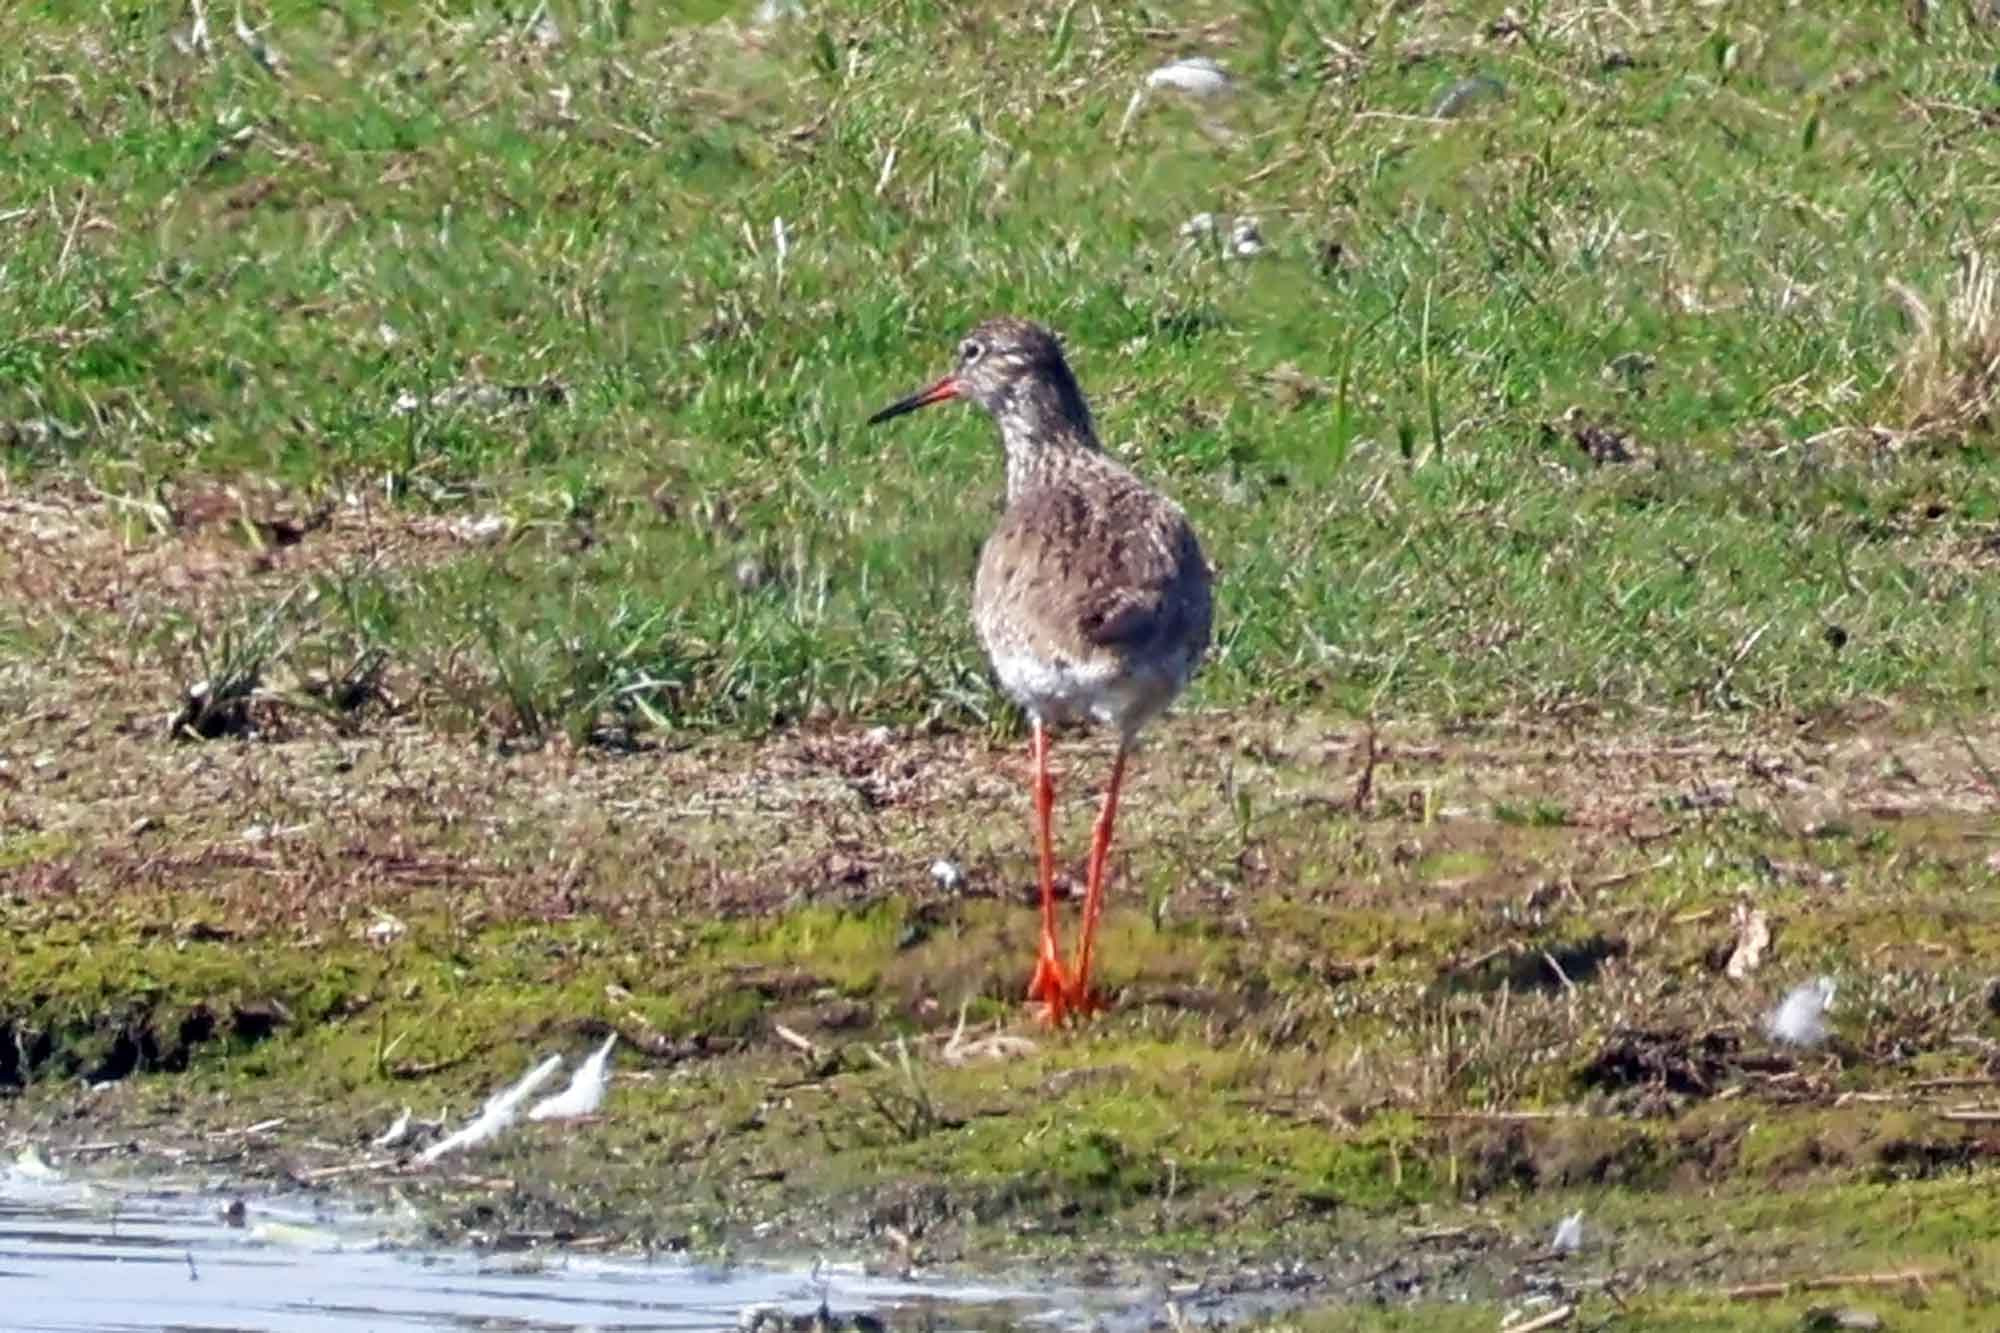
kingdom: Animalia
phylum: Chordata
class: Aves
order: Charadriiformes
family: Scolopacidae
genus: Tringa
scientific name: Tringa totanus
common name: Rødben
